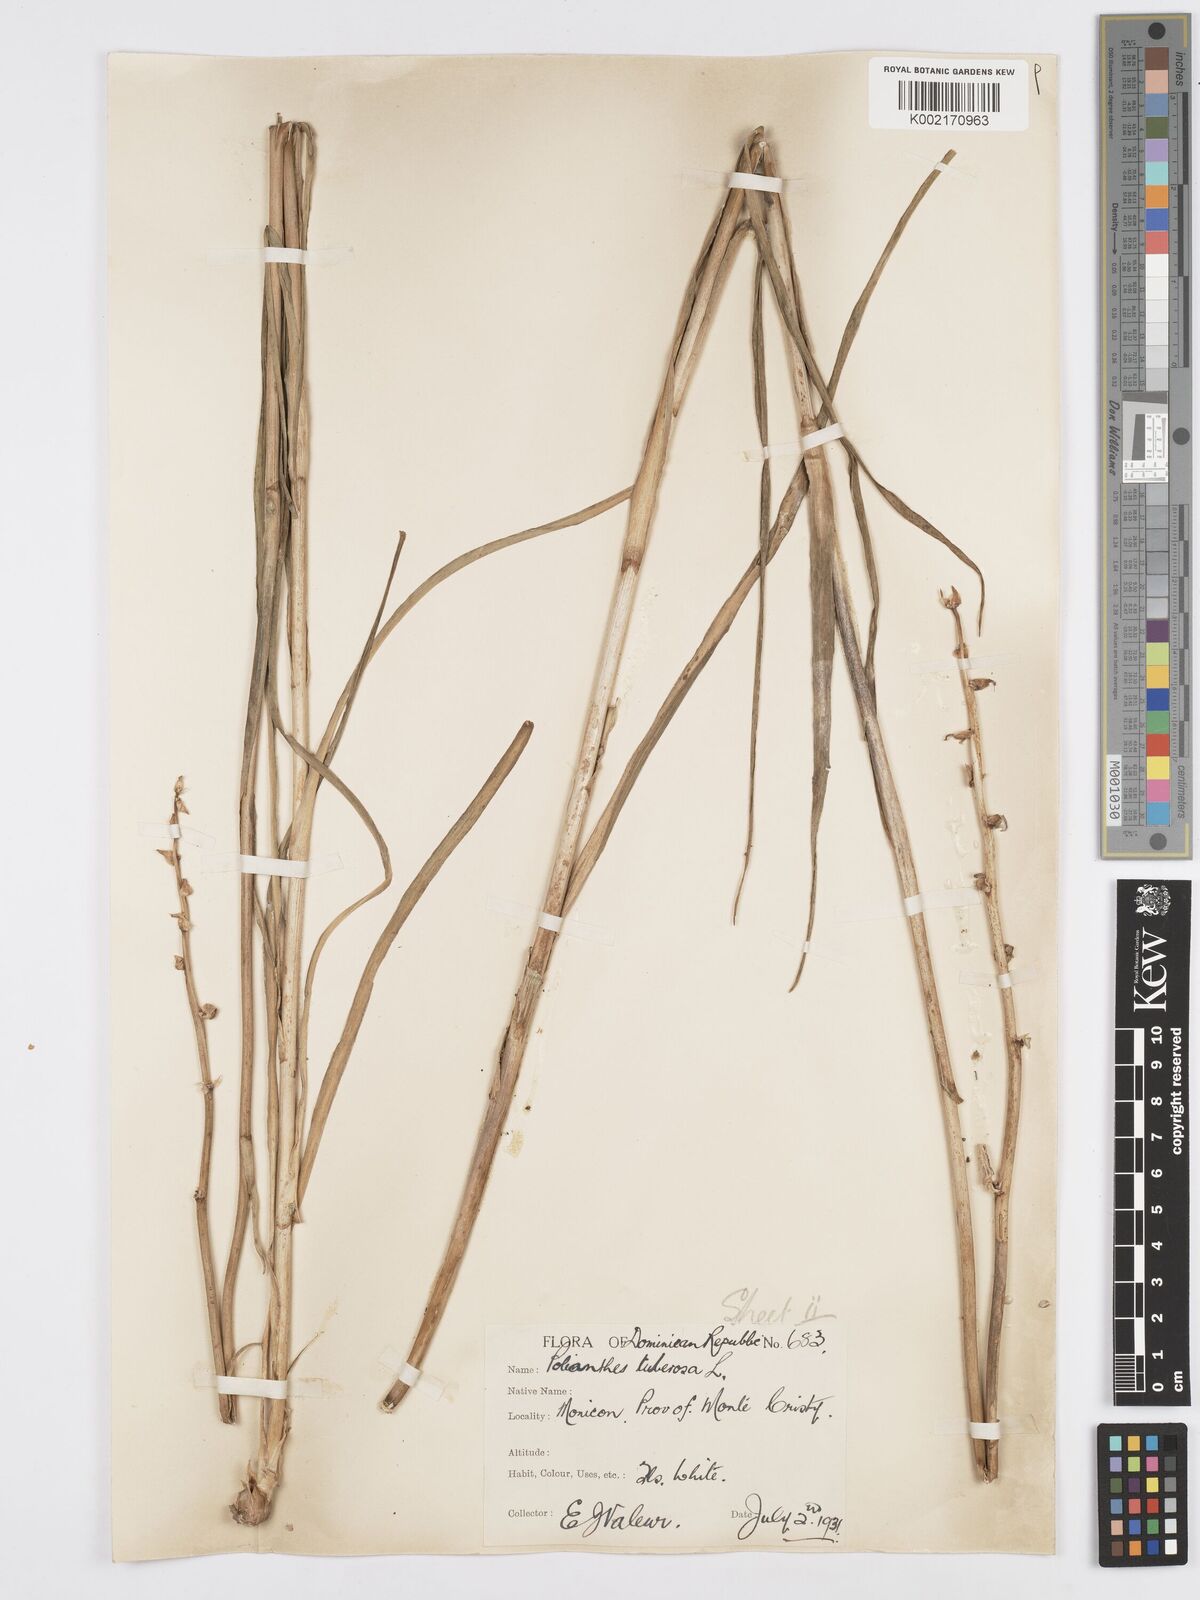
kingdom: Plantae
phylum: Tracheophyta
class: Liliopsida
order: Asparagales
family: Asparagaceae
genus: Agave
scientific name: Agave amica
